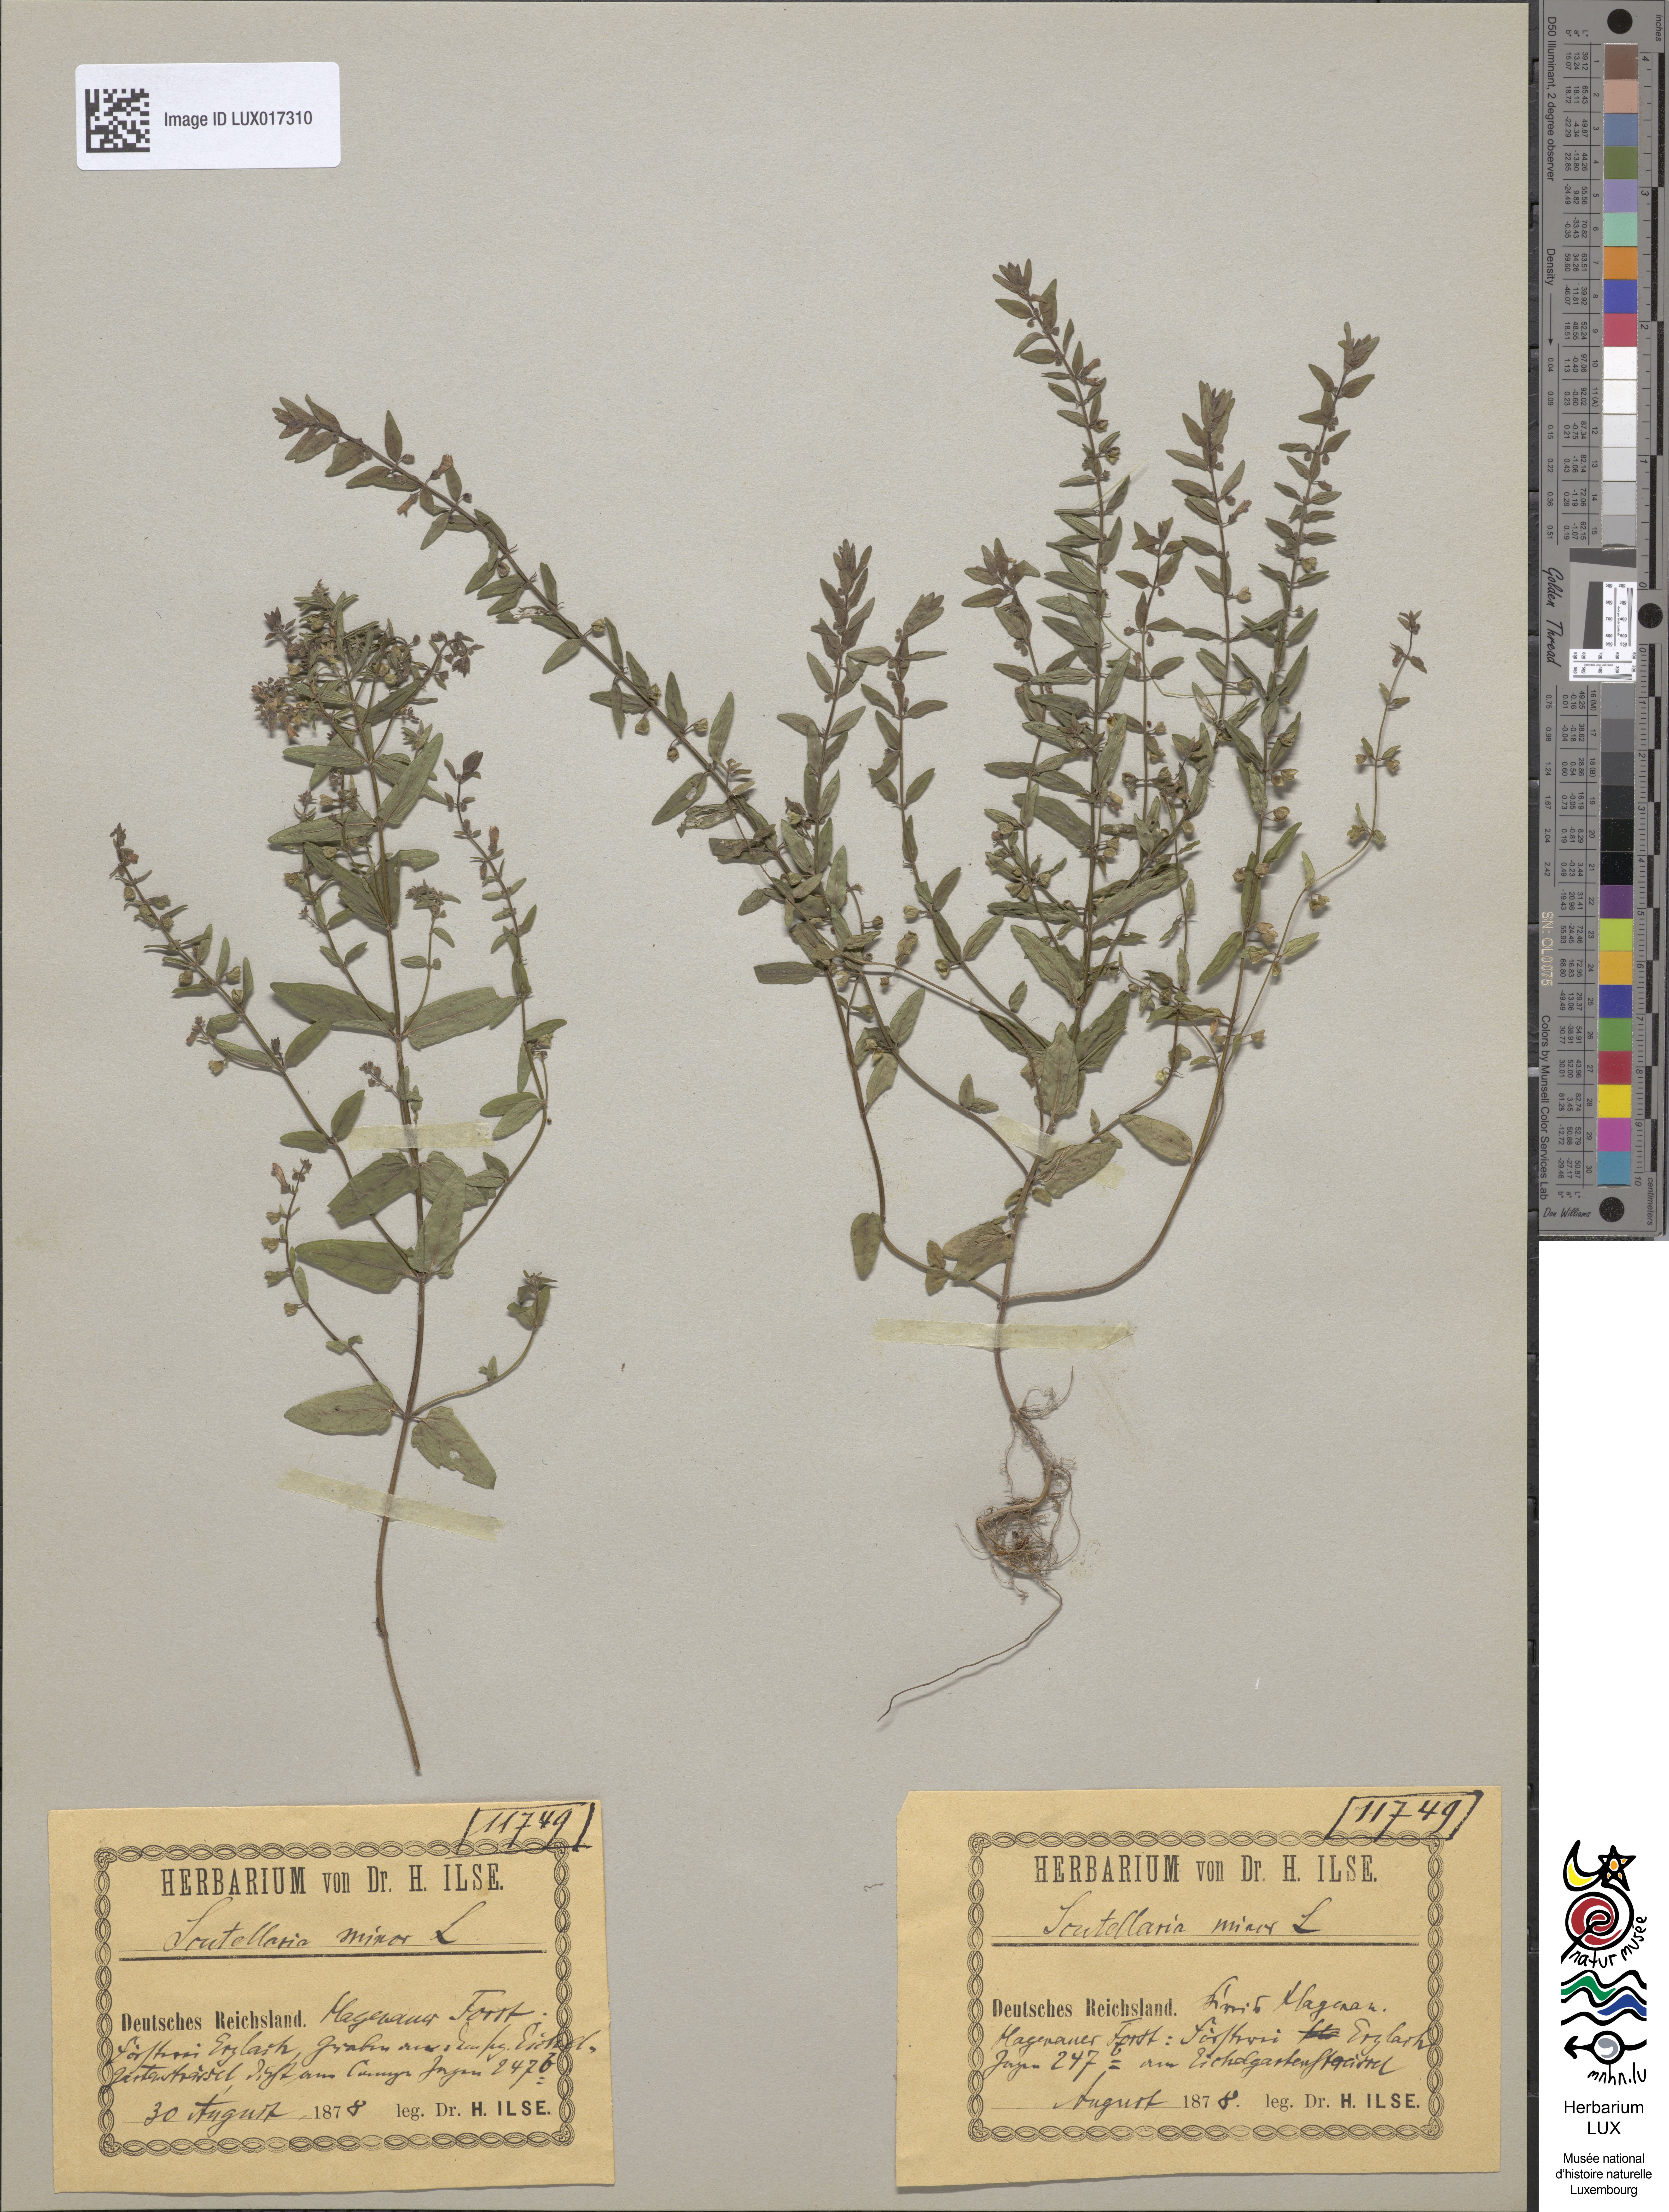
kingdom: Plantae
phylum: Tracheophyta
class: Magnoliopsida
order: Lamiales
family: Lamiaceae
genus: Scutellaria
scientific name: Scutellaria minor
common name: Lesser skullcap
